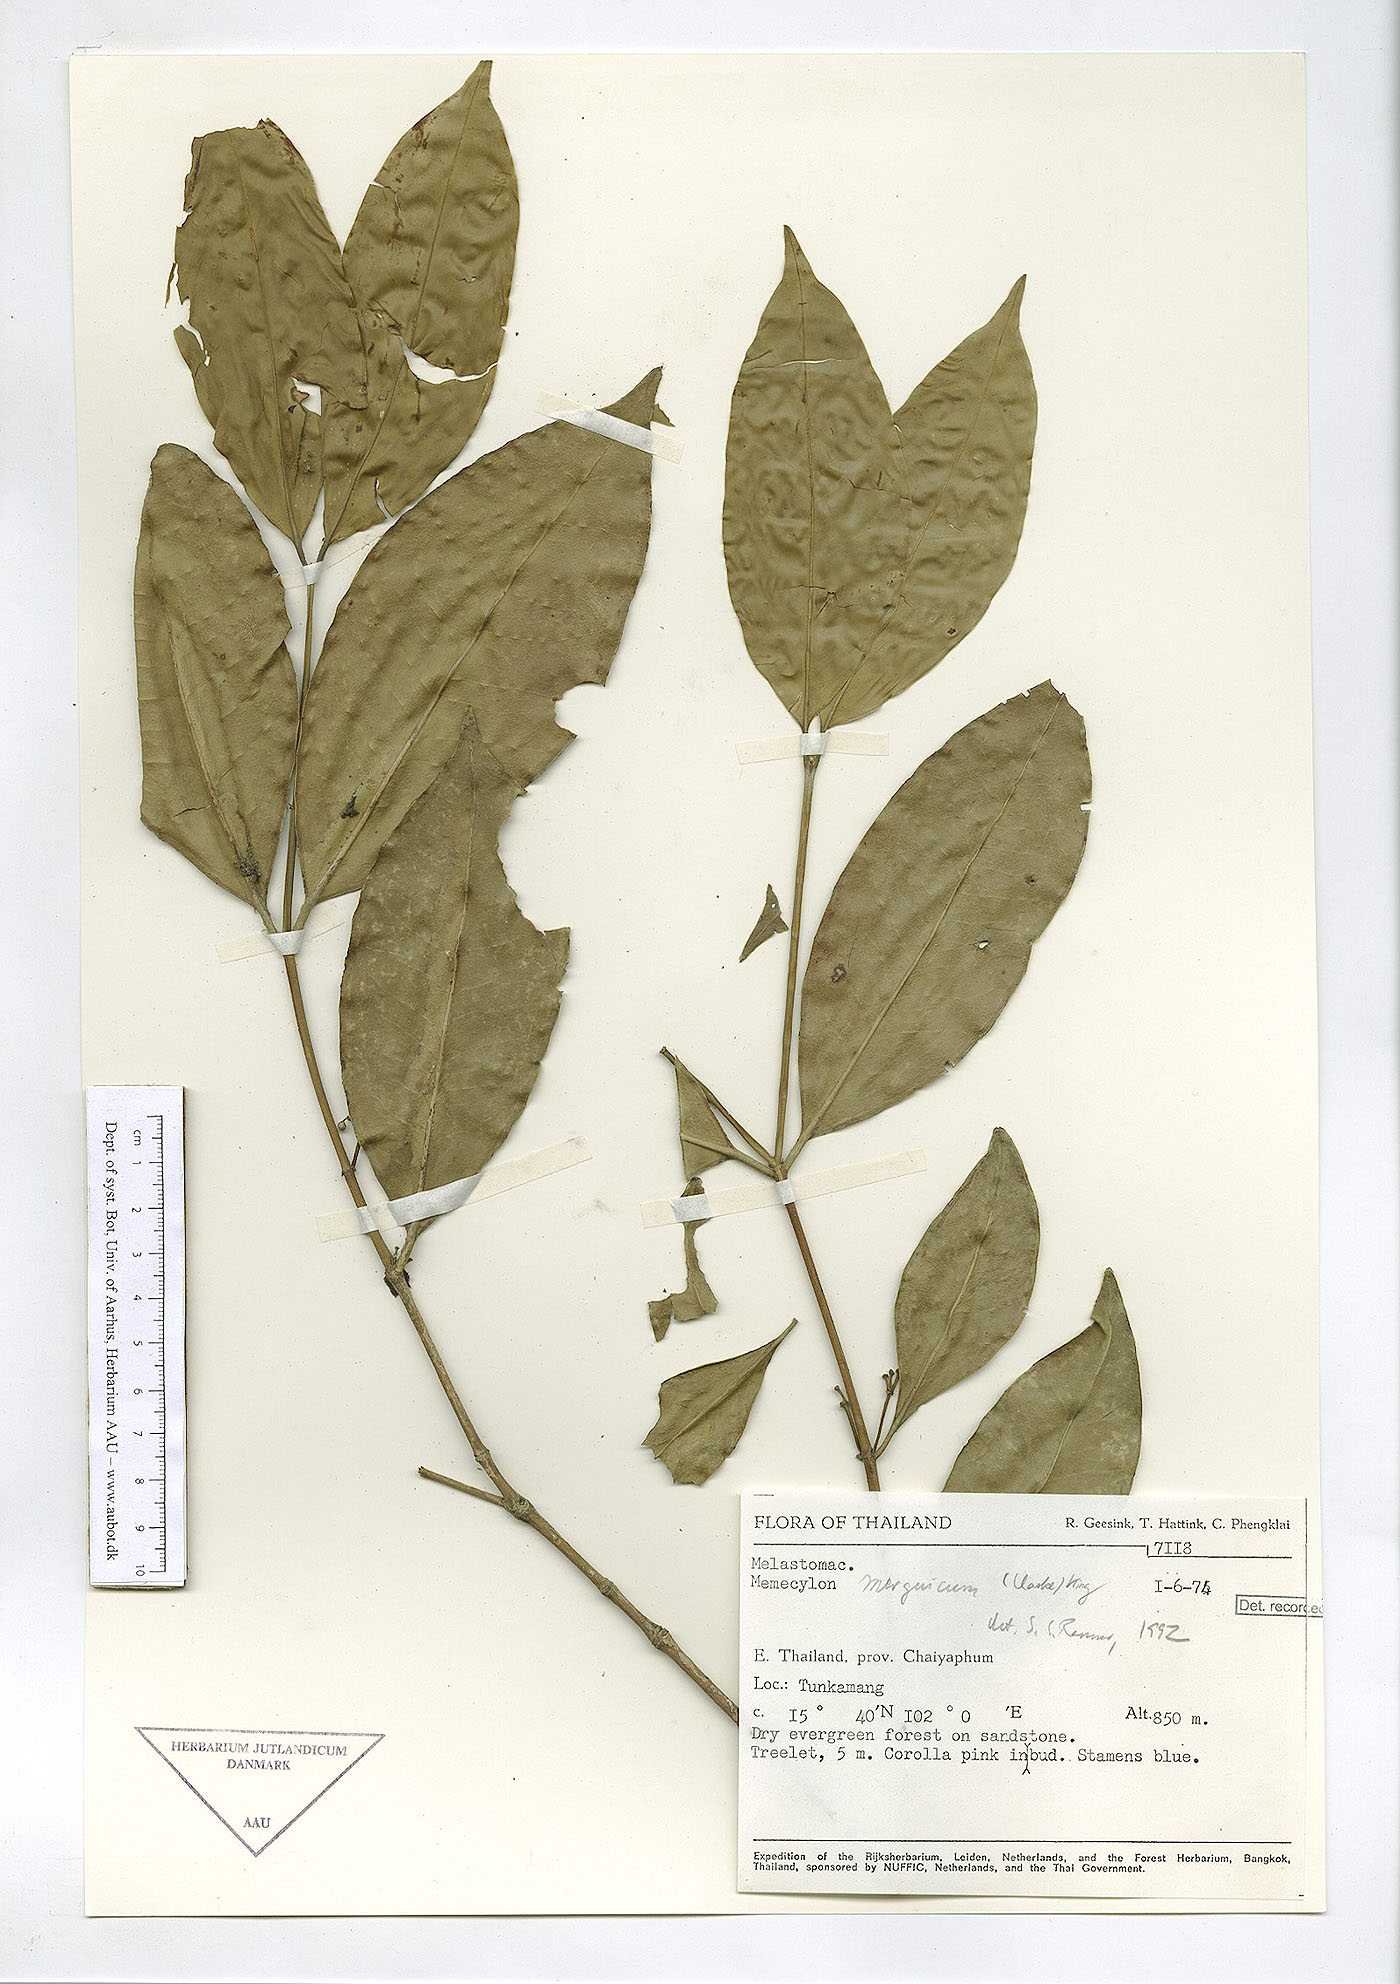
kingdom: Plantae
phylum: Tracheophyta
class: Magnoliopsida
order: Myrtales
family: Melastomataceae
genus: Memecylon
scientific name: Memecylon
